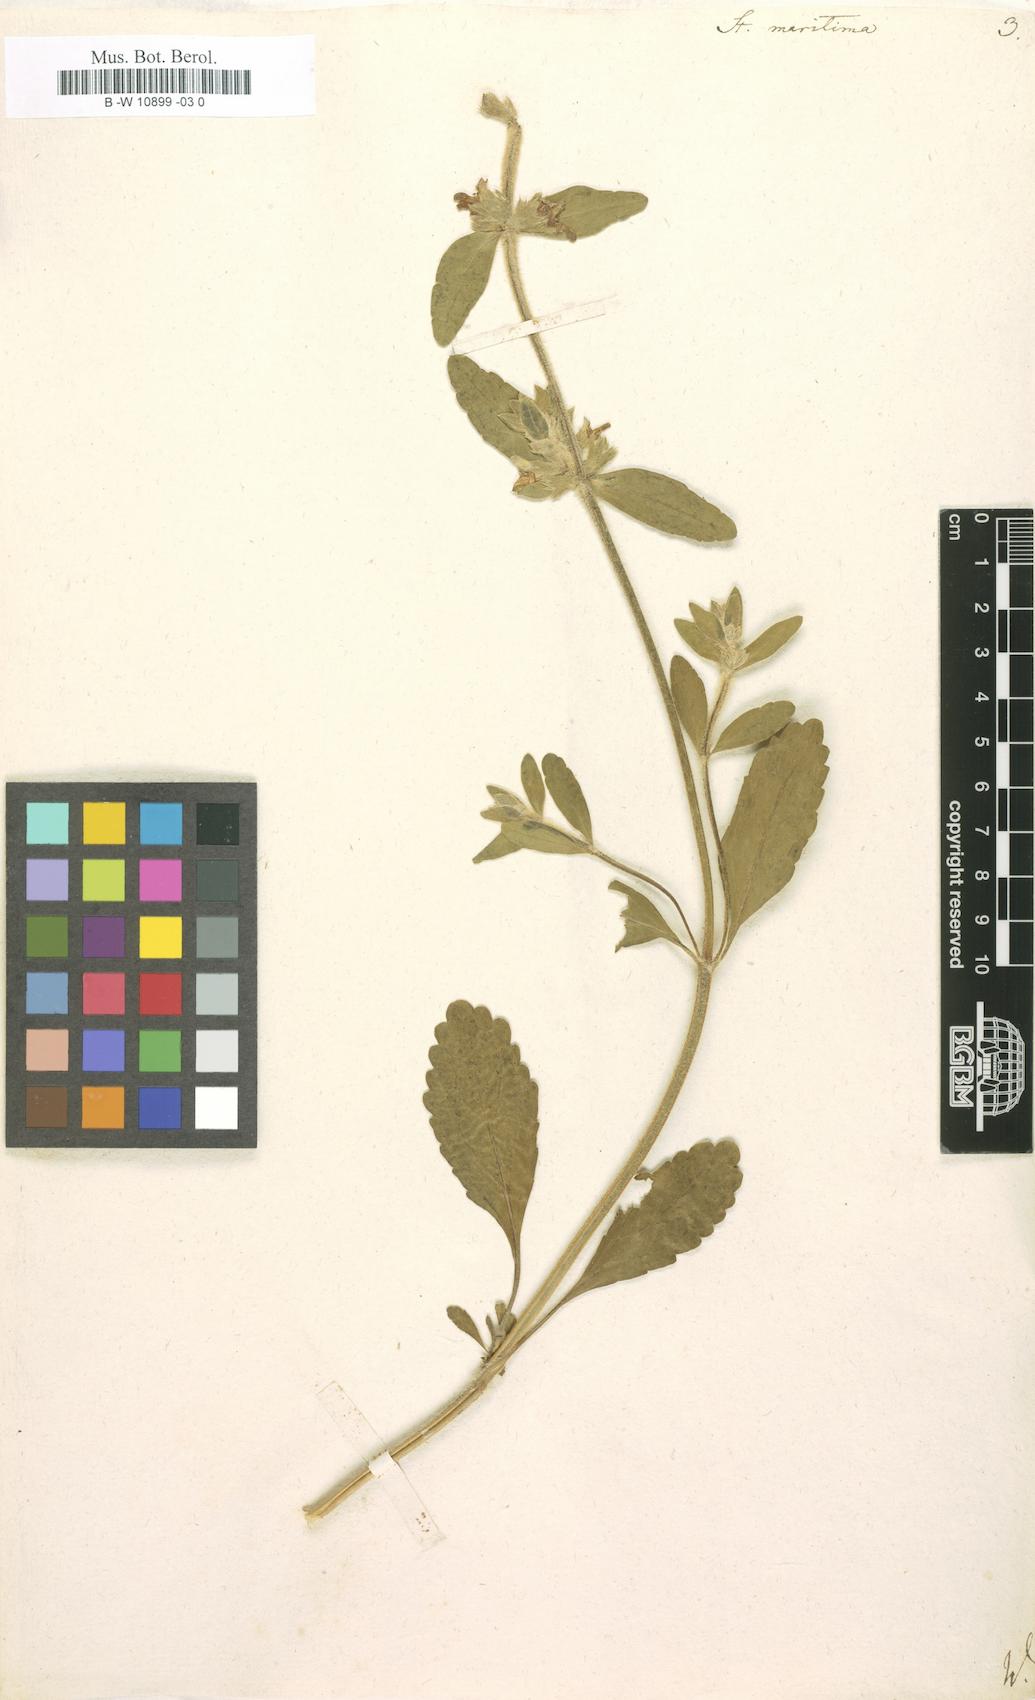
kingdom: Plantae
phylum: Tracheophyta
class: Magnoliopsida
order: Lamiales
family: Lamiaceae
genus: Stachys
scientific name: Stachys maritima
